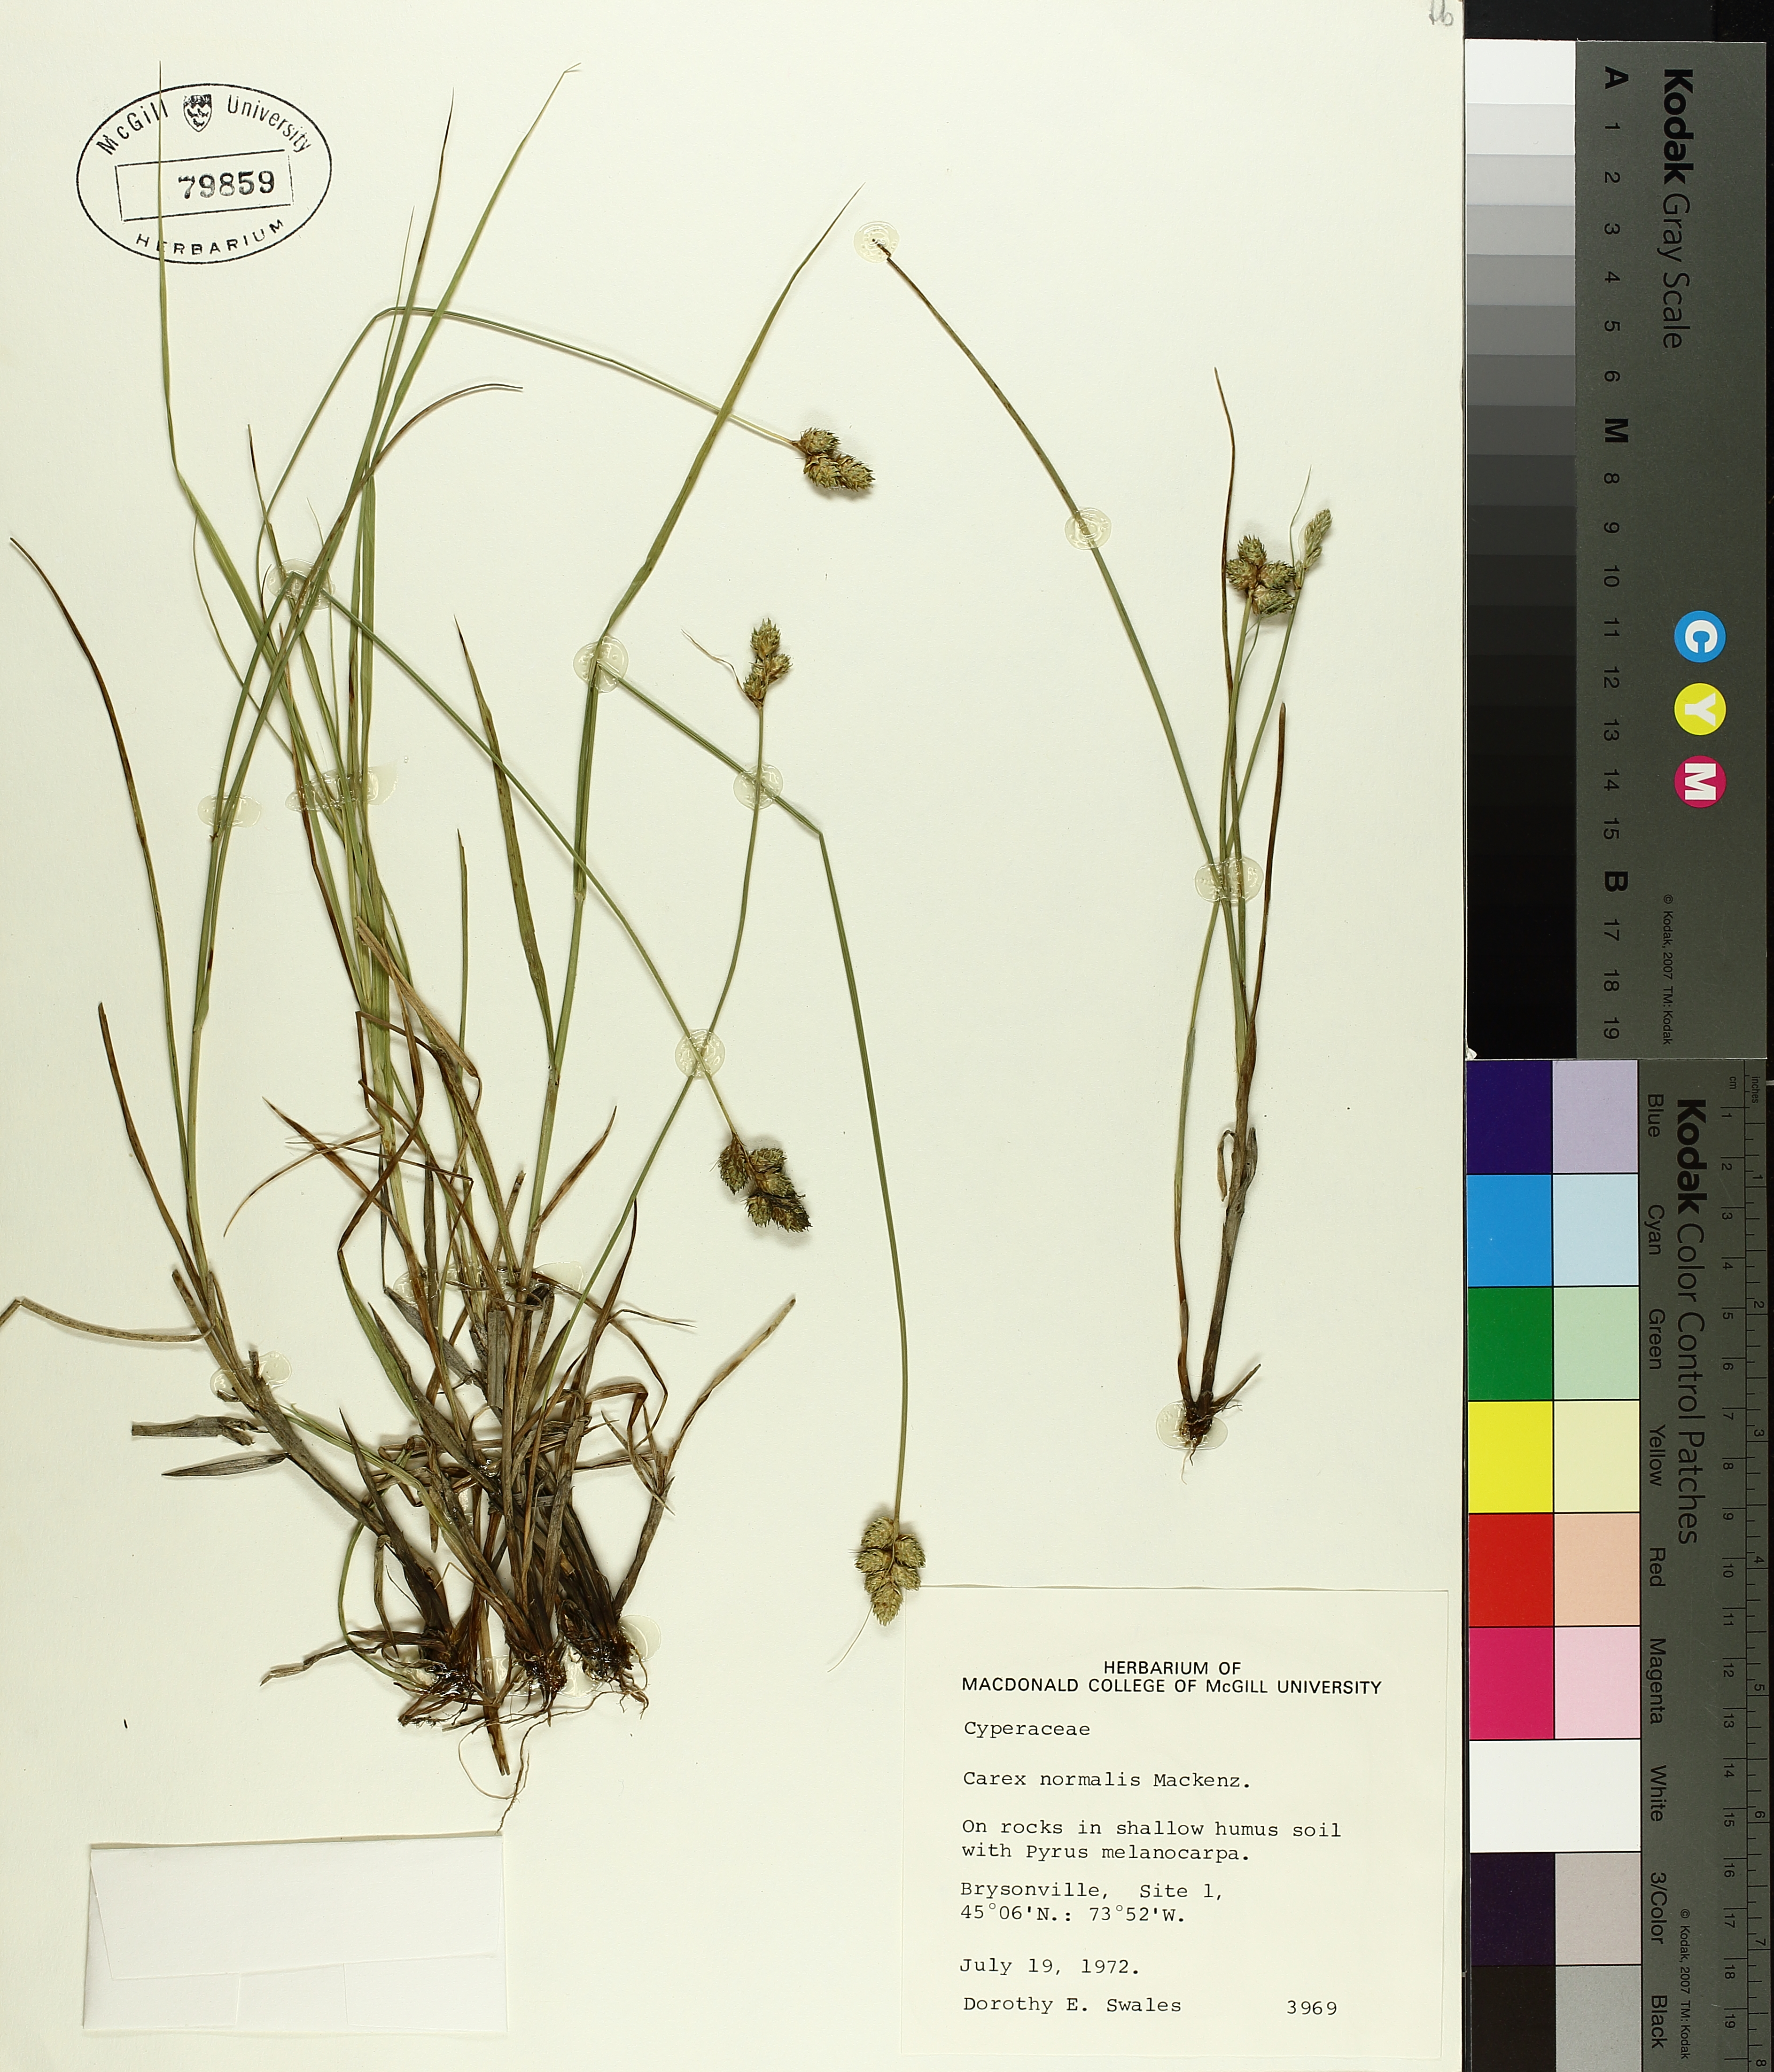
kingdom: Plantae
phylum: Tracheophyta
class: Liliopsida
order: Poales
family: Cyperaceae
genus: Carex
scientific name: Carex normalis
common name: Greater straw sedge
